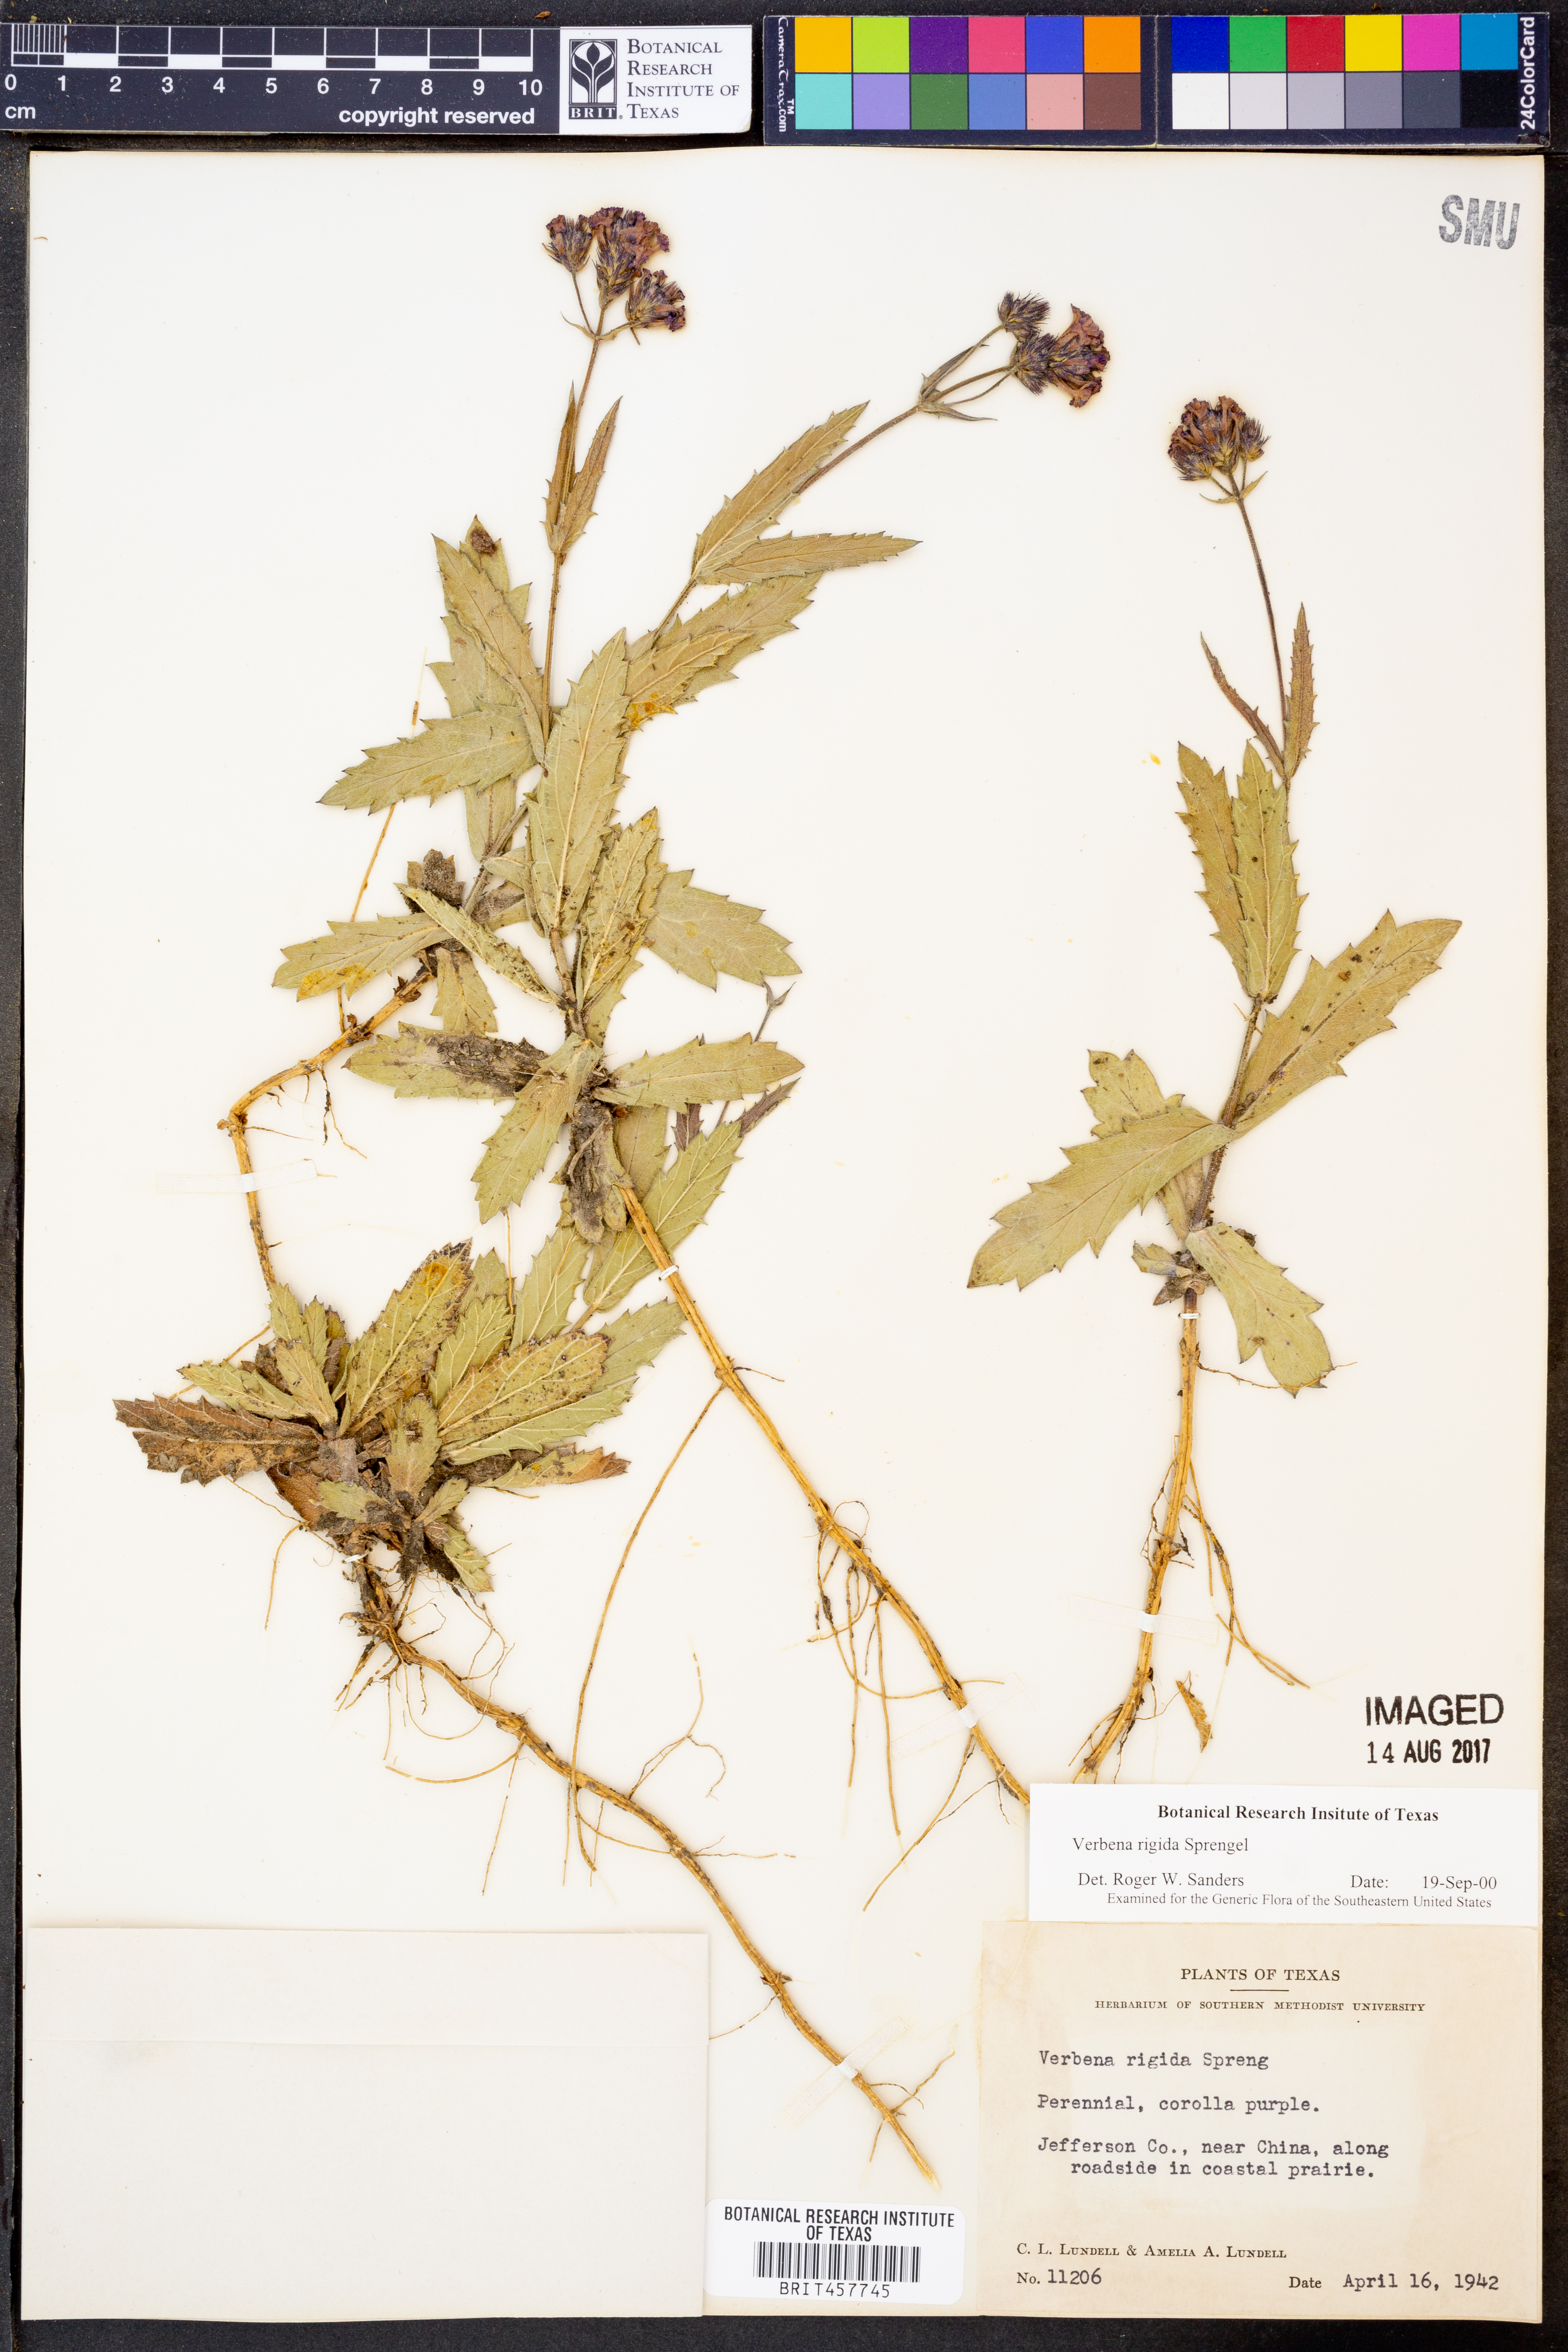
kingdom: Plantae
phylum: Tracheophyta
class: Magnoliopsida
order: Lamiales
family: Verbenaceae
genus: Verbena
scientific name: Verbena rigida
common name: Slender vervain
